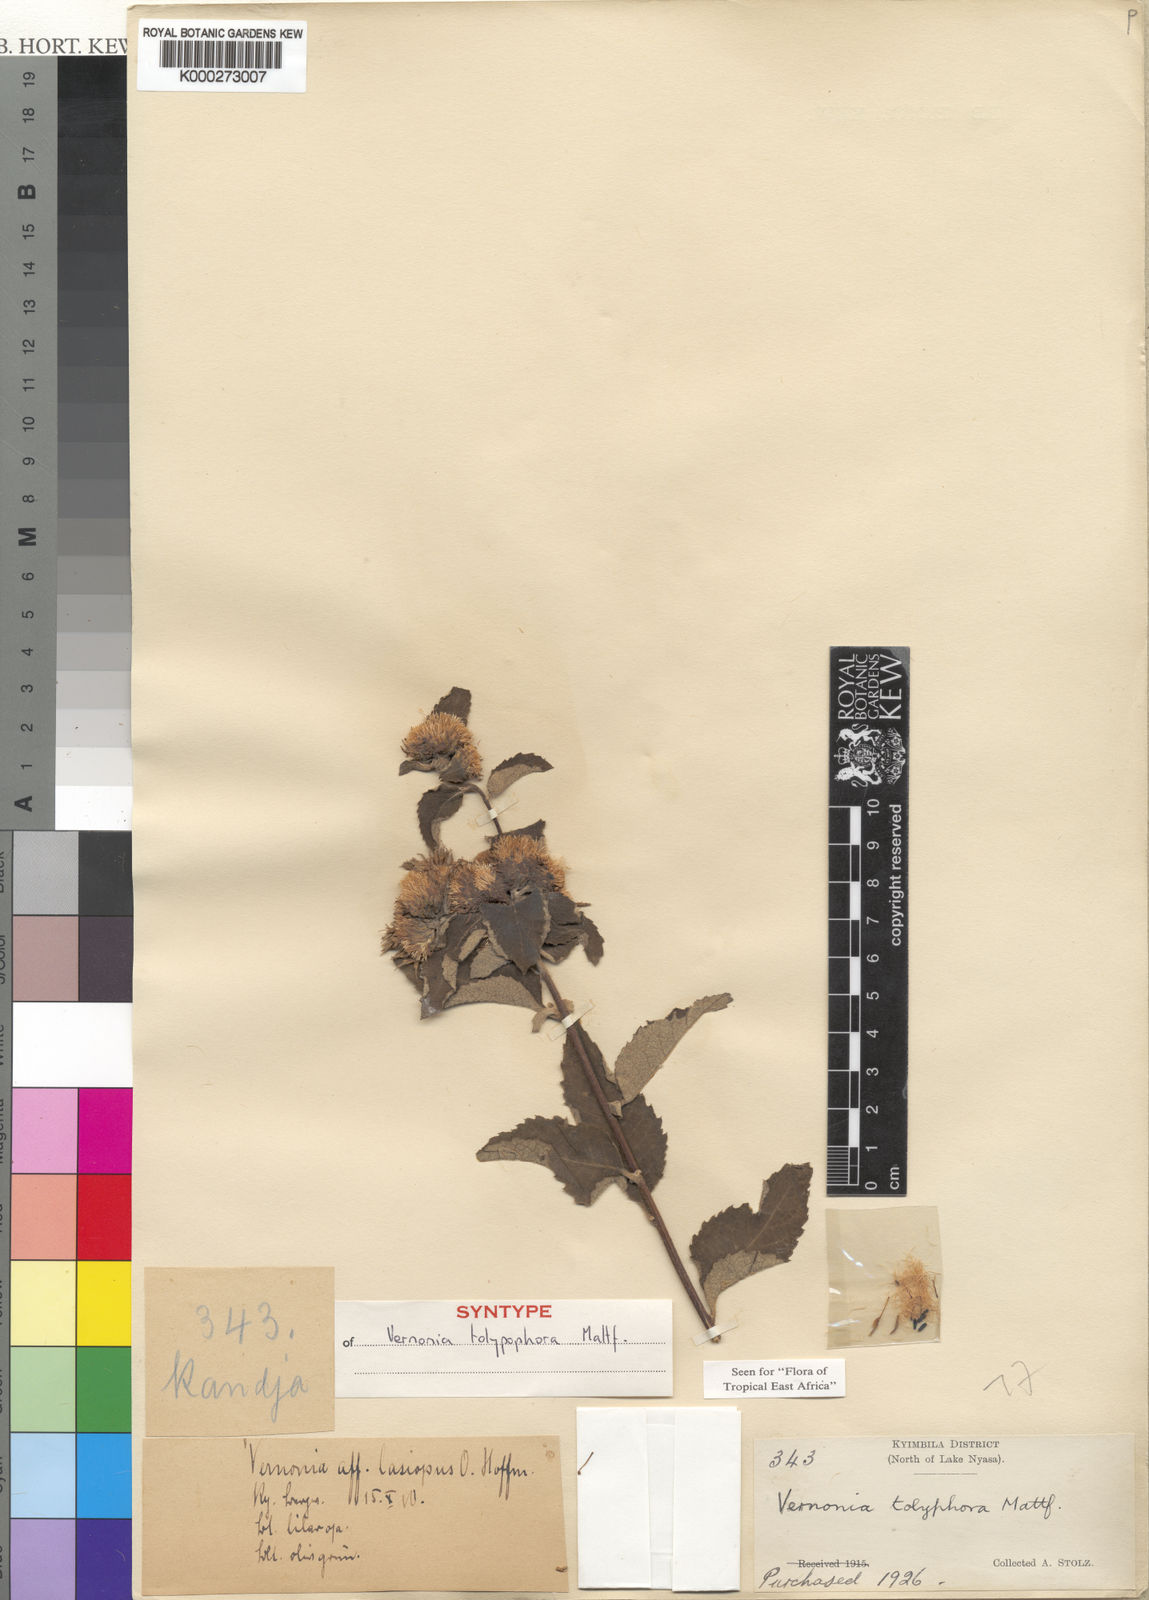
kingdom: Plantae
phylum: Tracheophyta
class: Magnoliopsida
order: Asterales
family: Asteraceae
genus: Baccharoides
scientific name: Baccharoides tolypophora
